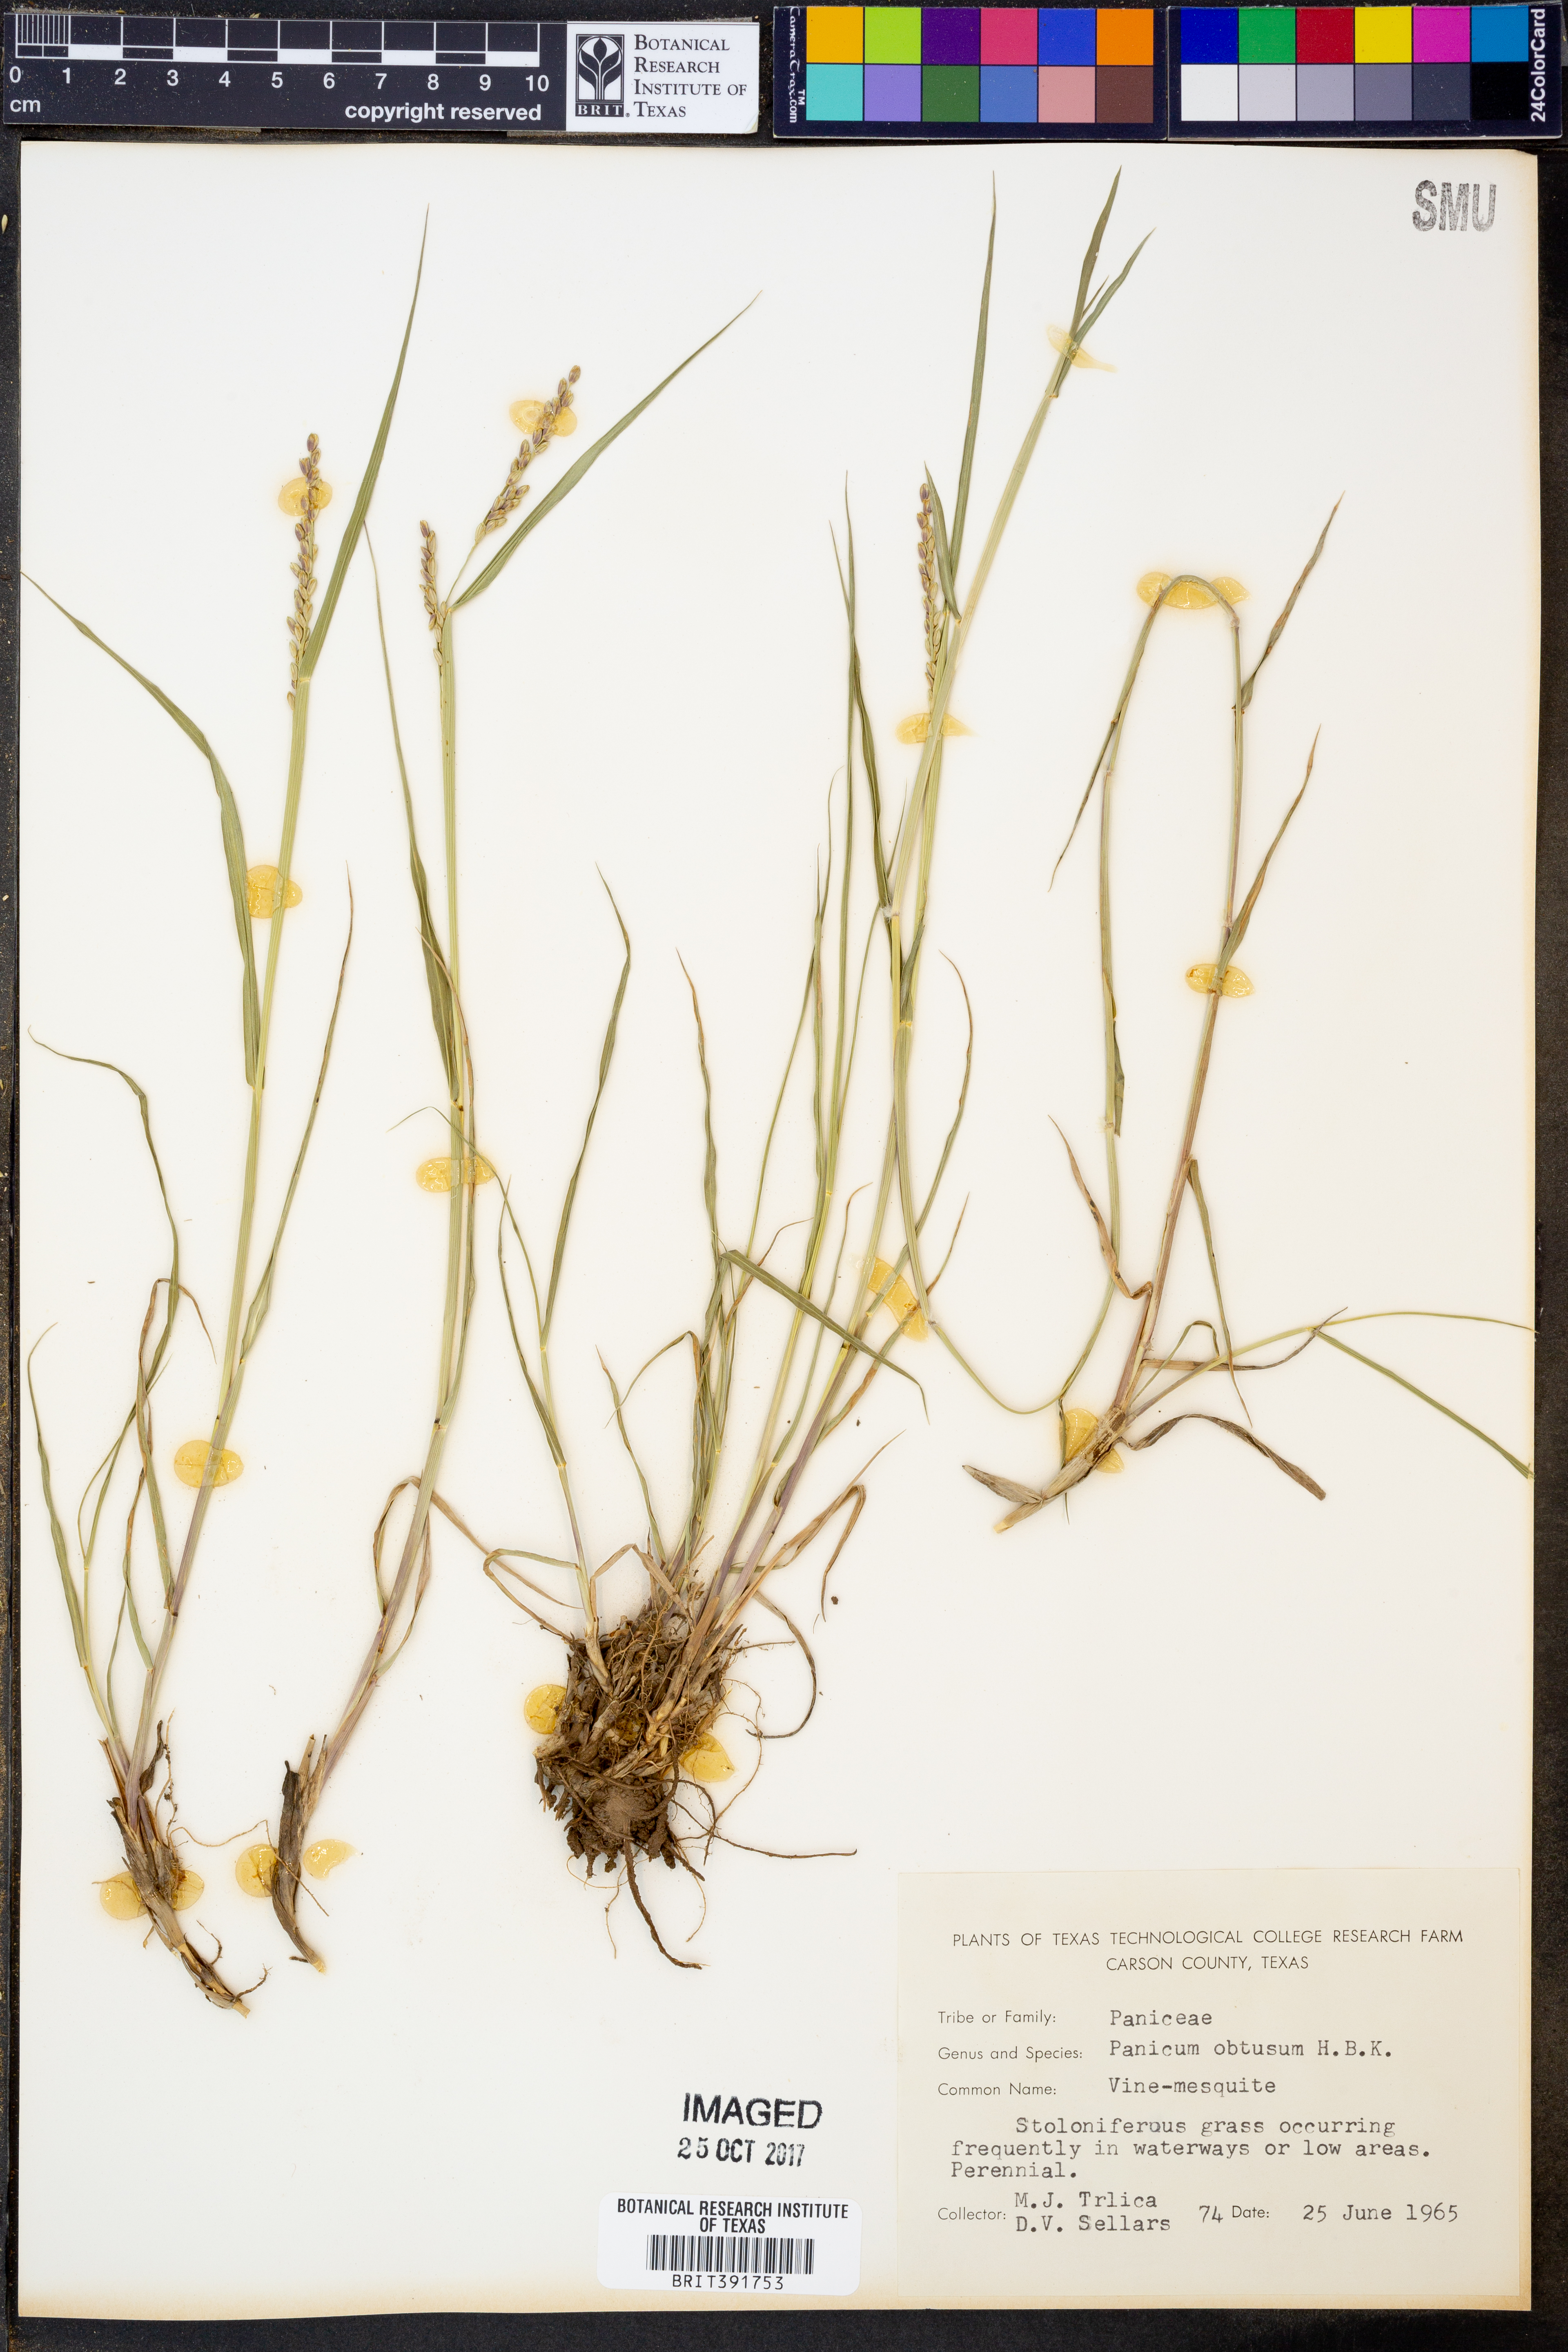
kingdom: Plantae
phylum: Tracheophyta
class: Liliopsida
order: Poales
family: Poaceae
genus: Hopia
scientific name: Hopia obtusa
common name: Vine-mesquite
